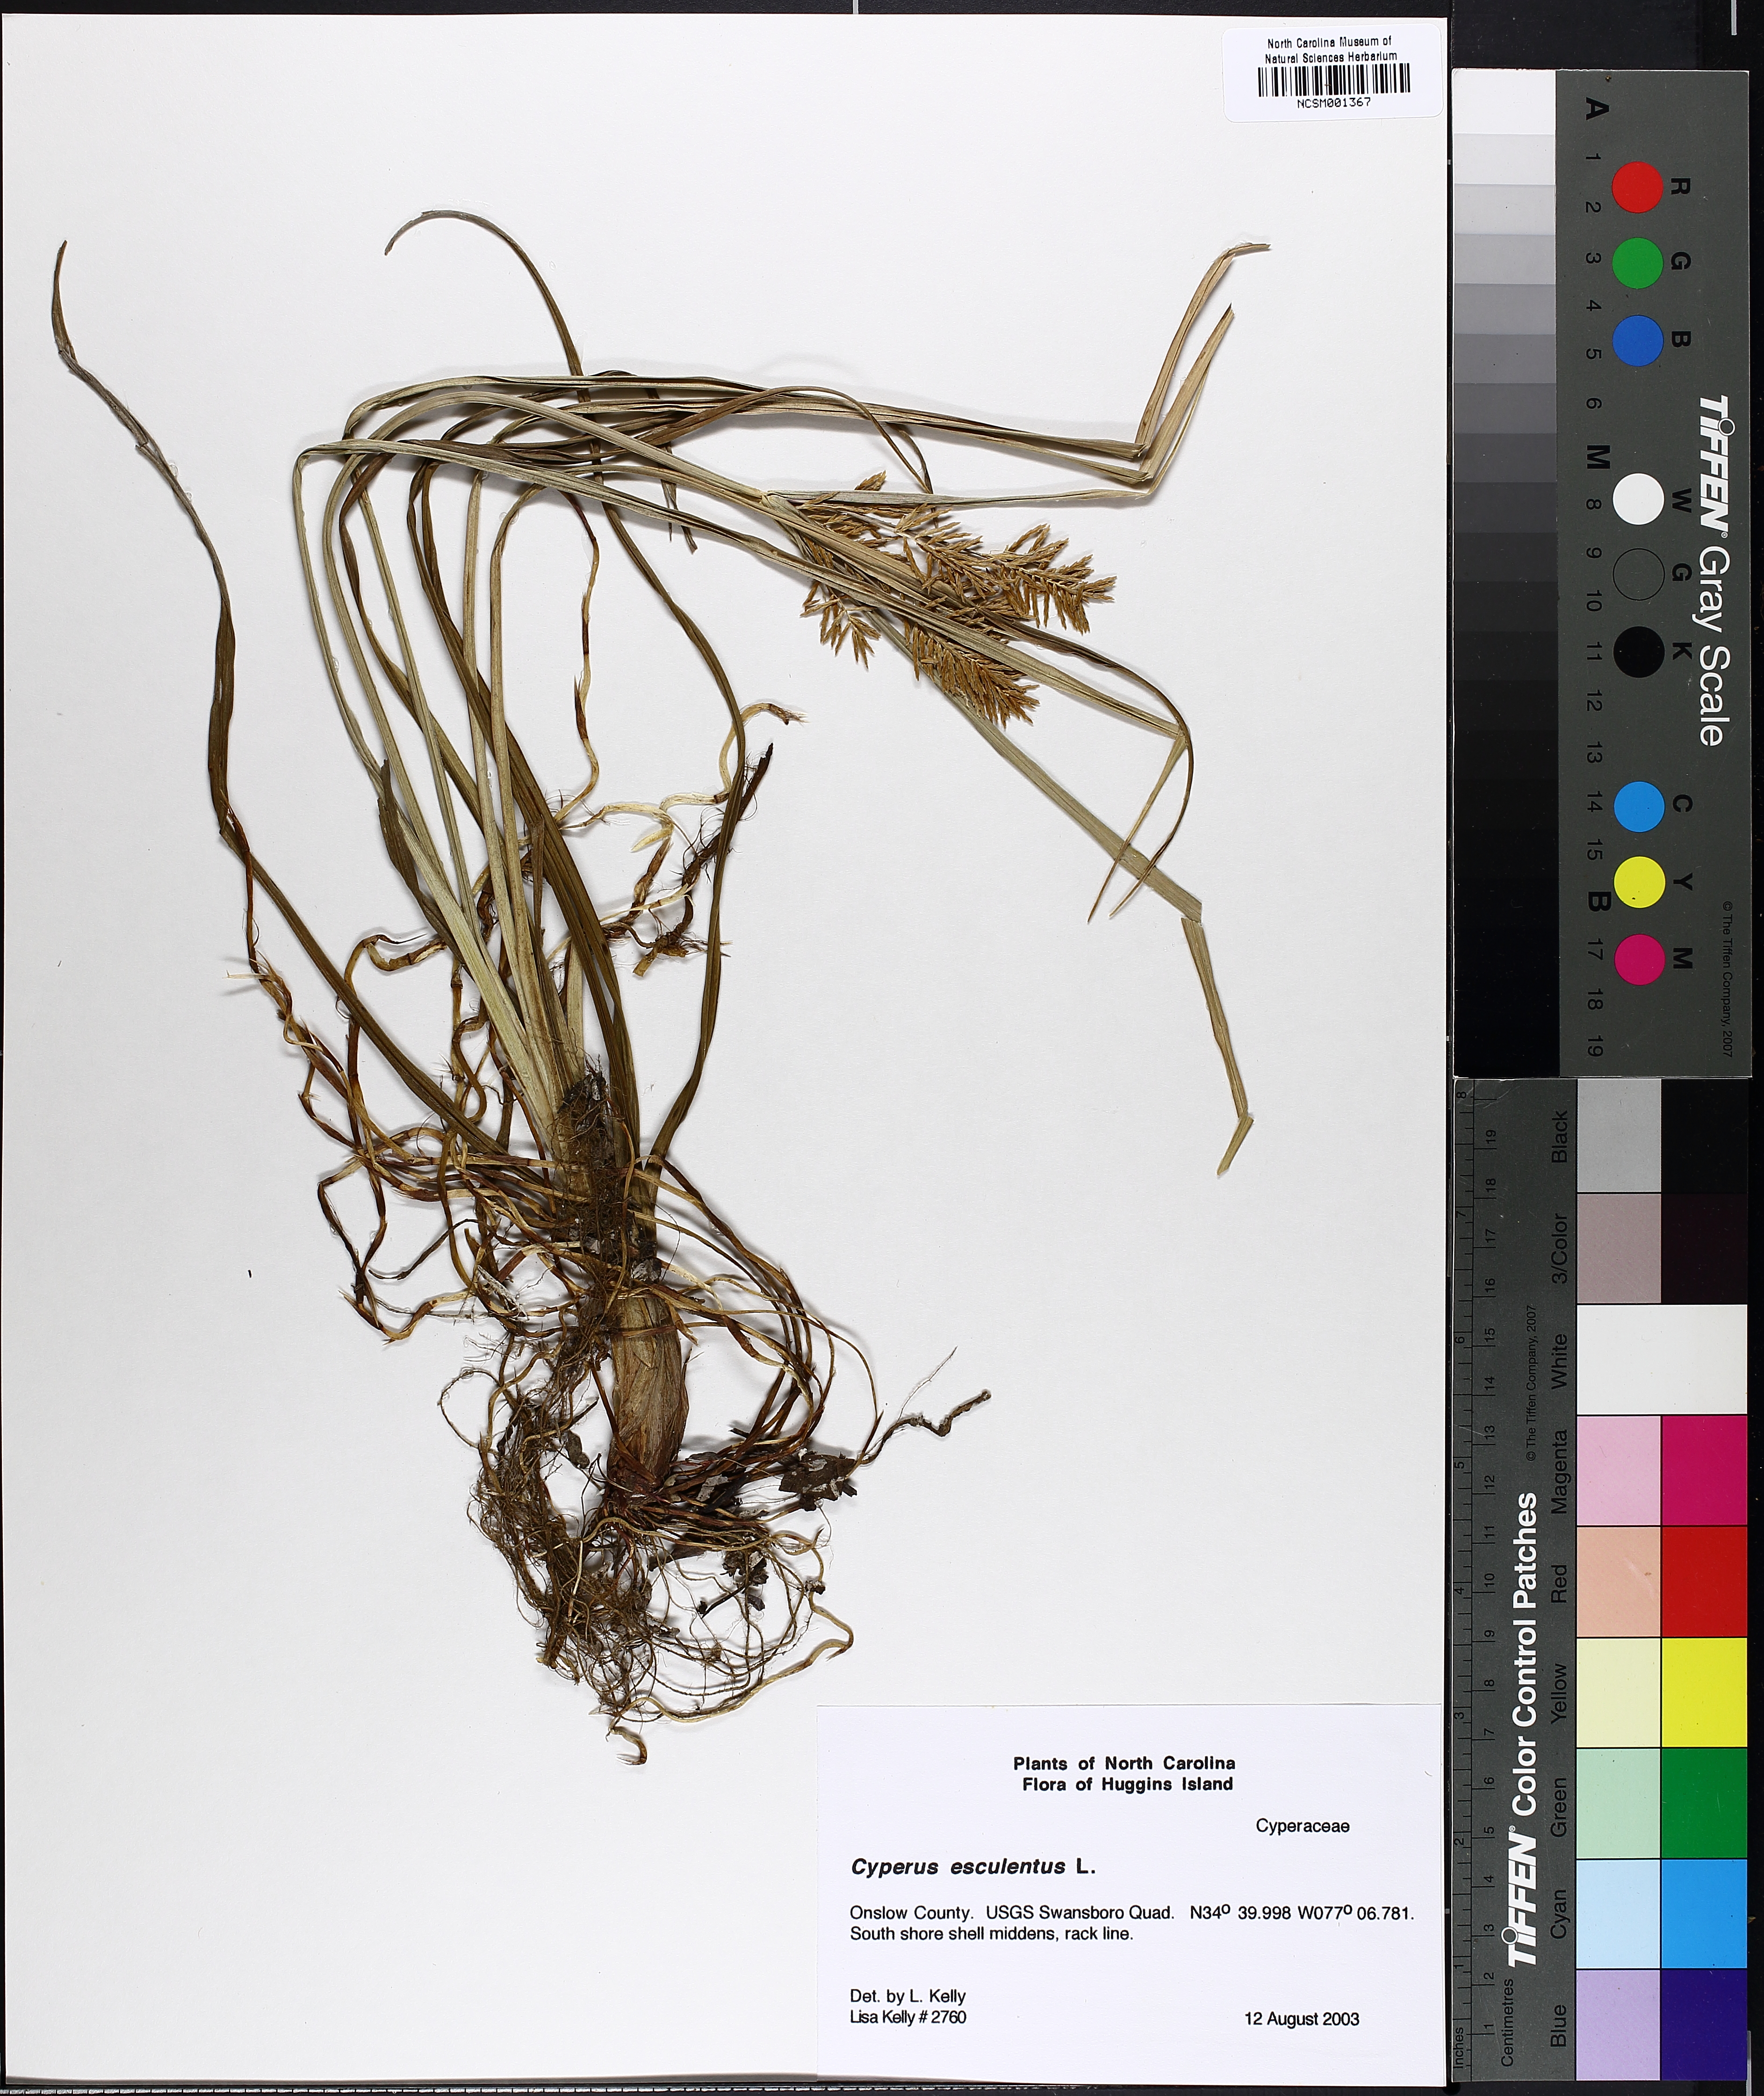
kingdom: Plantae
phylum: Tracheophyta
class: Liliopsida
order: Poales
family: Cyperaceae
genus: Cyperus
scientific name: Cyperus esculentus
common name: Yellow nutsedge
